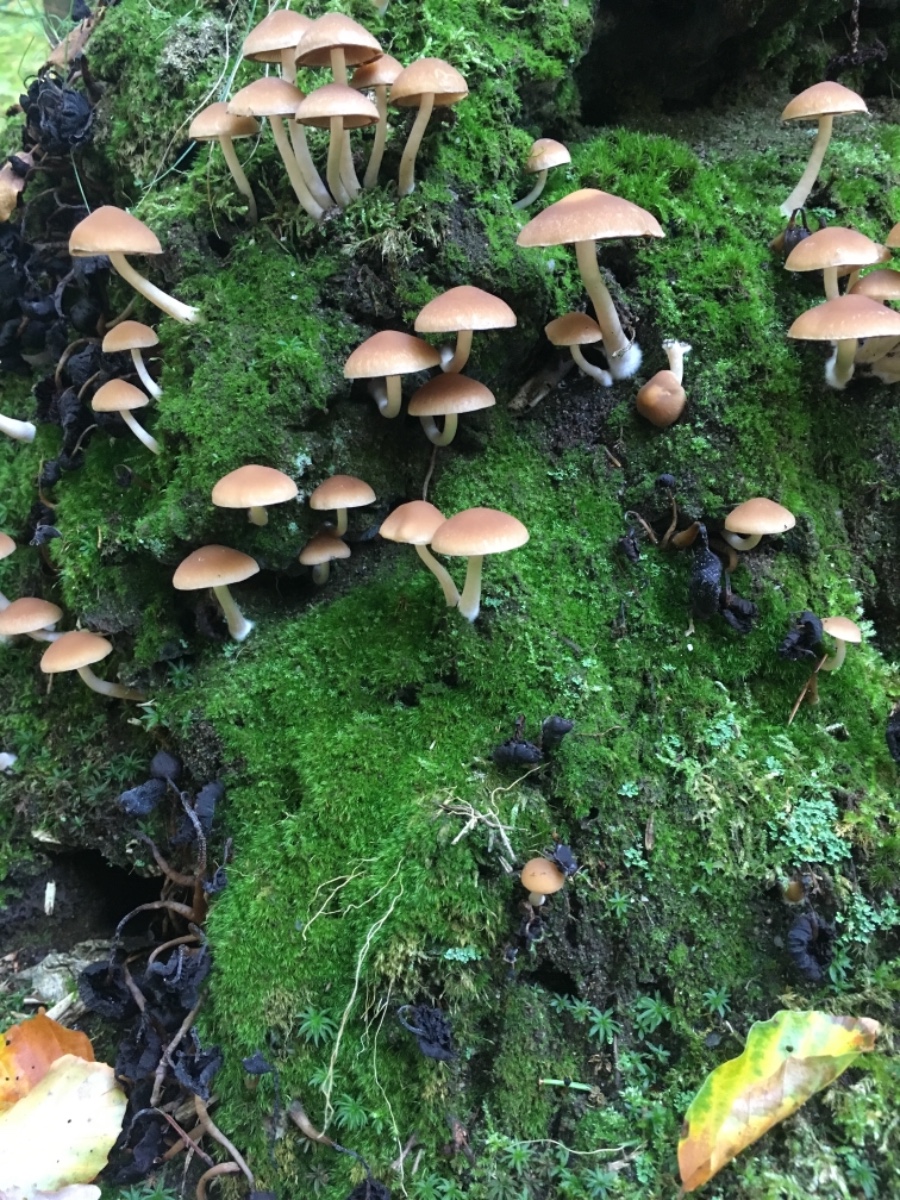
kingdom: Fungi
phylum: Basidiomycota
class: Agaricomycetes
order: Agaricales
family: Psathyrellaceae
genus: Psathyrella
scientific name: Psathyrella piluliformis
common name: lysstokket mørkhat
